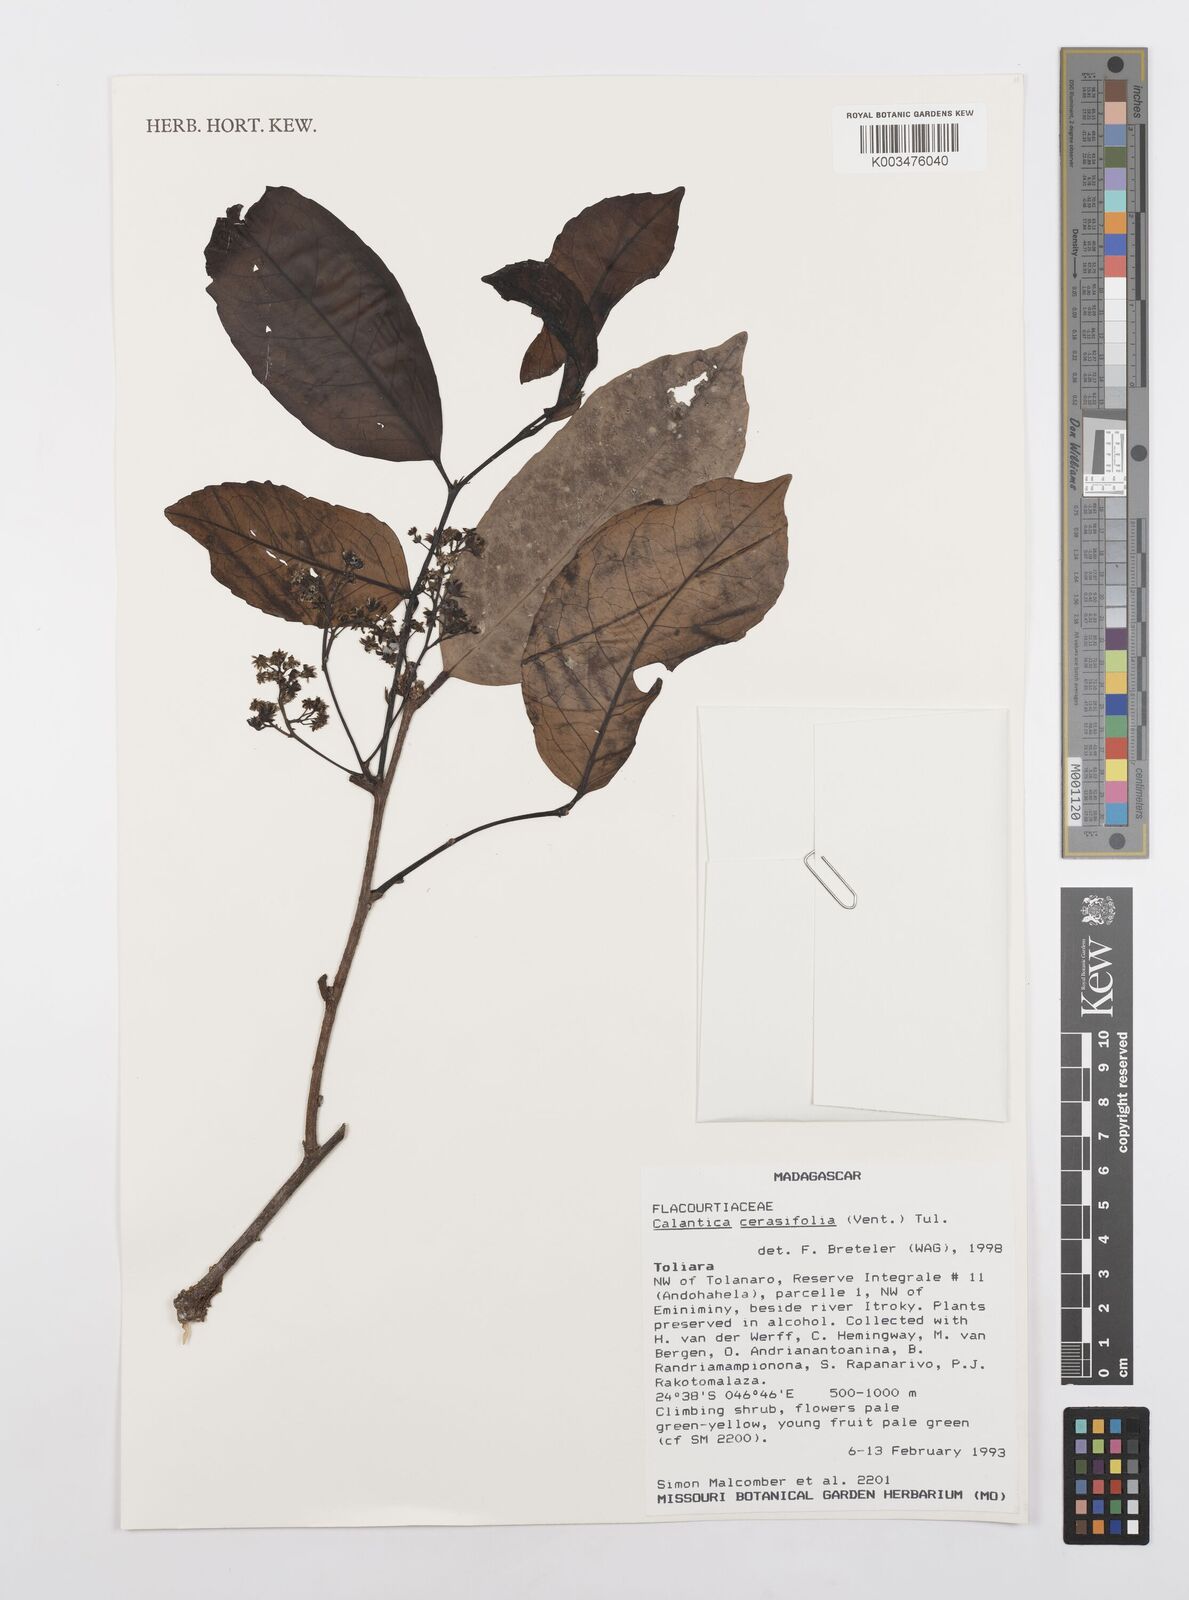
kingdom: Plantae
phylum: Tracheophyta
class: Magnoliopsida
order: Malpighiales
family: Salicaceae
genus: Calantica
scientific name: Calantica cerasifolia
